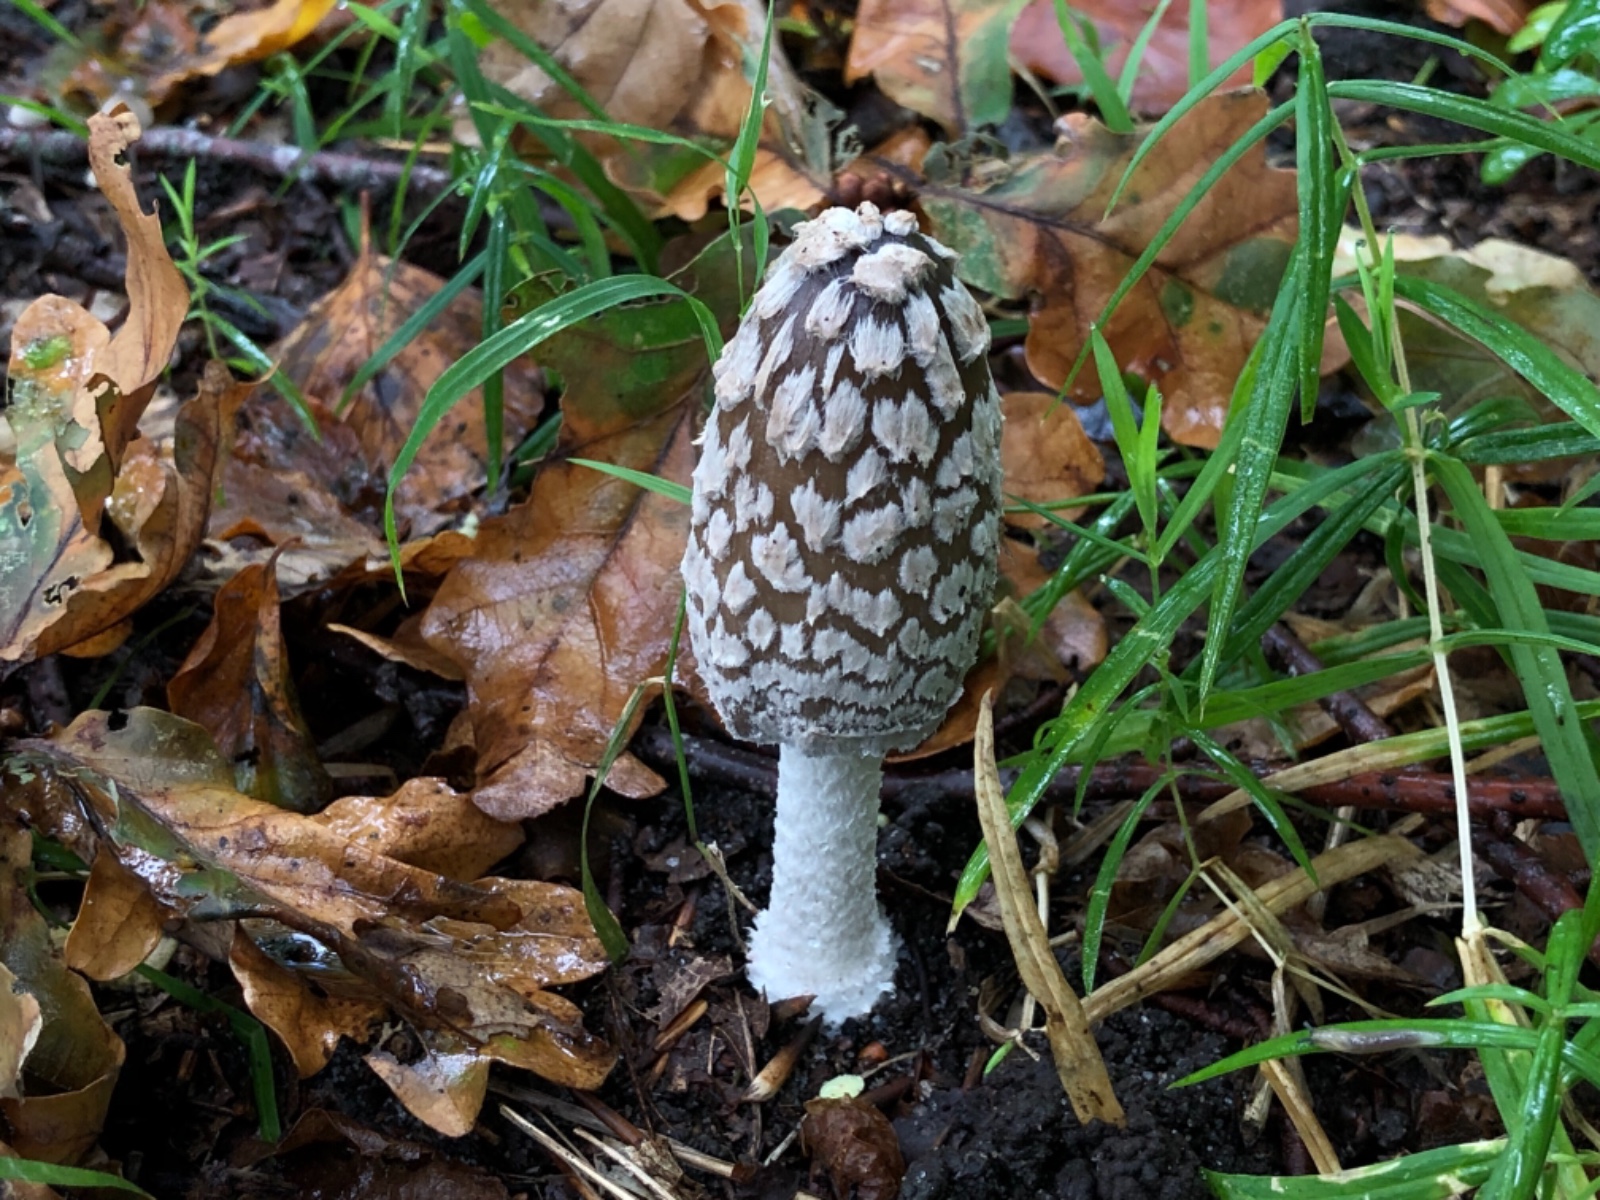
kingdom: Fungi
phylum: Basidiomycota
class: Agaricomycetes
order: Agaricales
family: Psathyrellaceae
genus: Coprinopsis
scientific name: Coprinopsis picacea
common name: skade-blækhat
